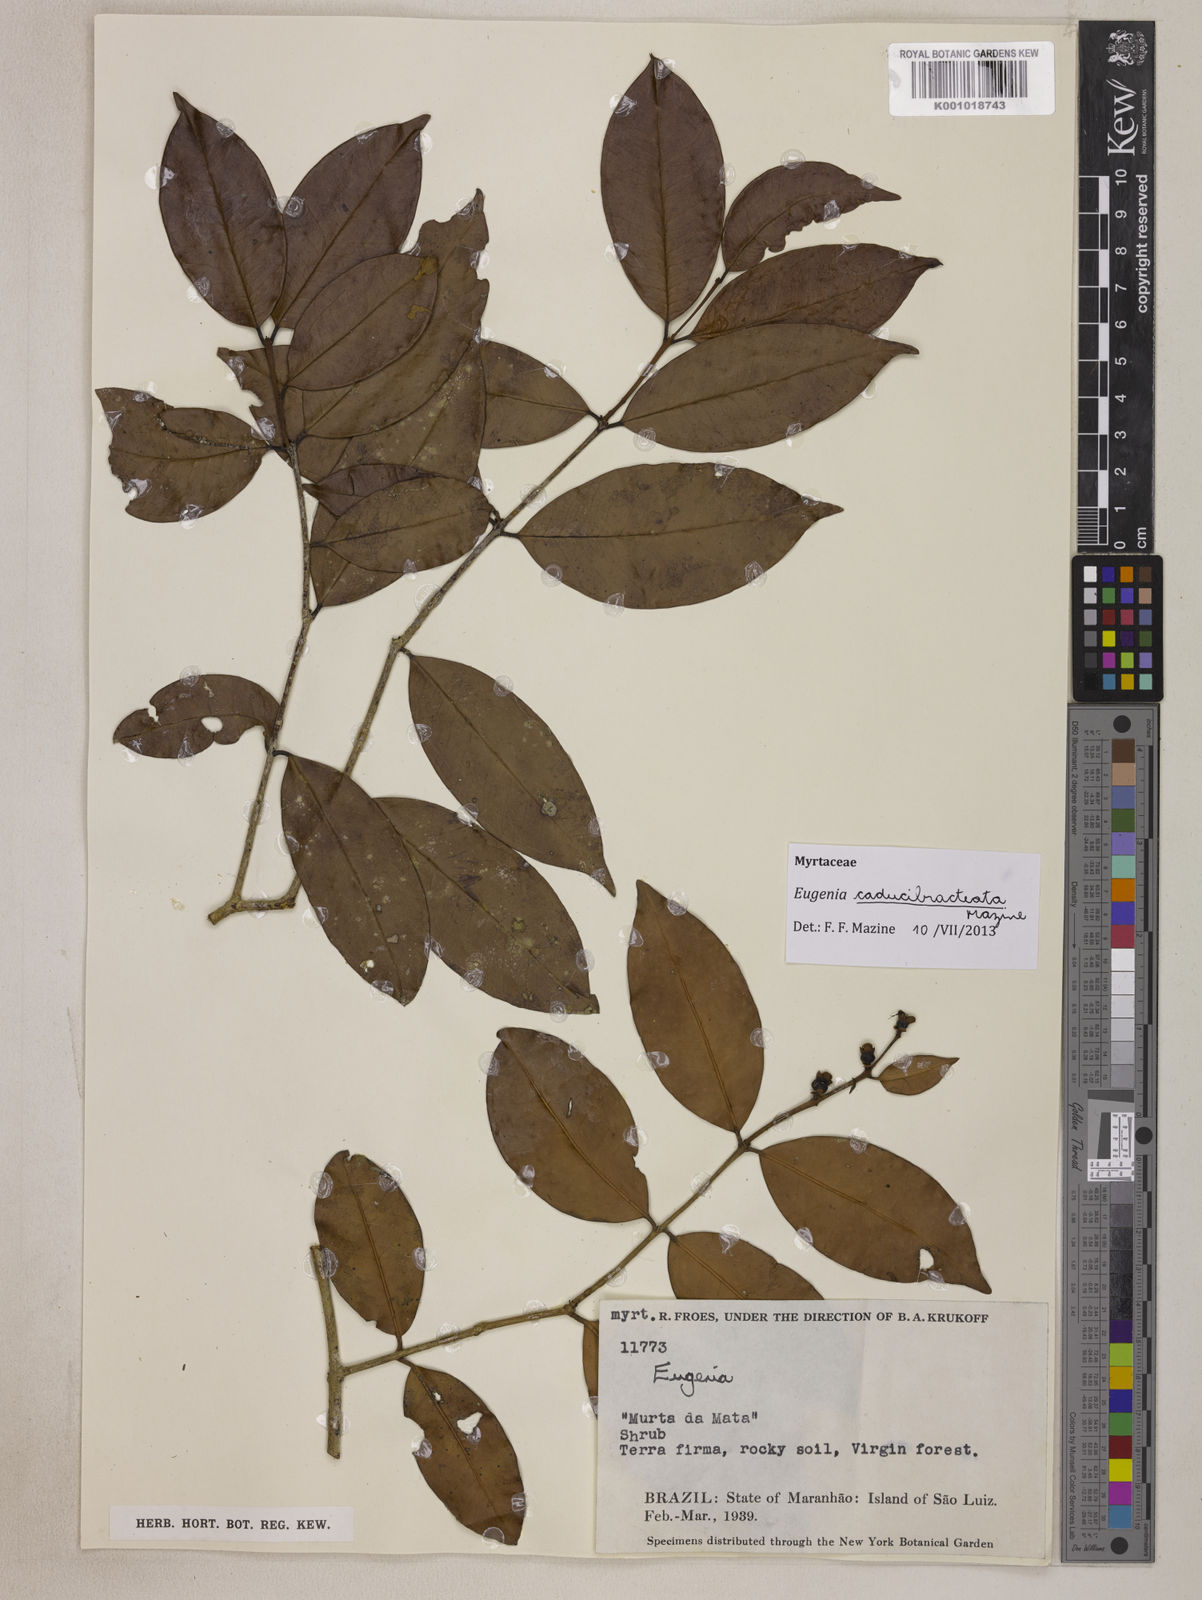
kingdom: Plantae
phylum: Tracheophyta
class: Magnoliopsida
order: Myrtales
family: Myrtaceae
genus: Eugenia
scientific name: Eugenia caducibracteata
